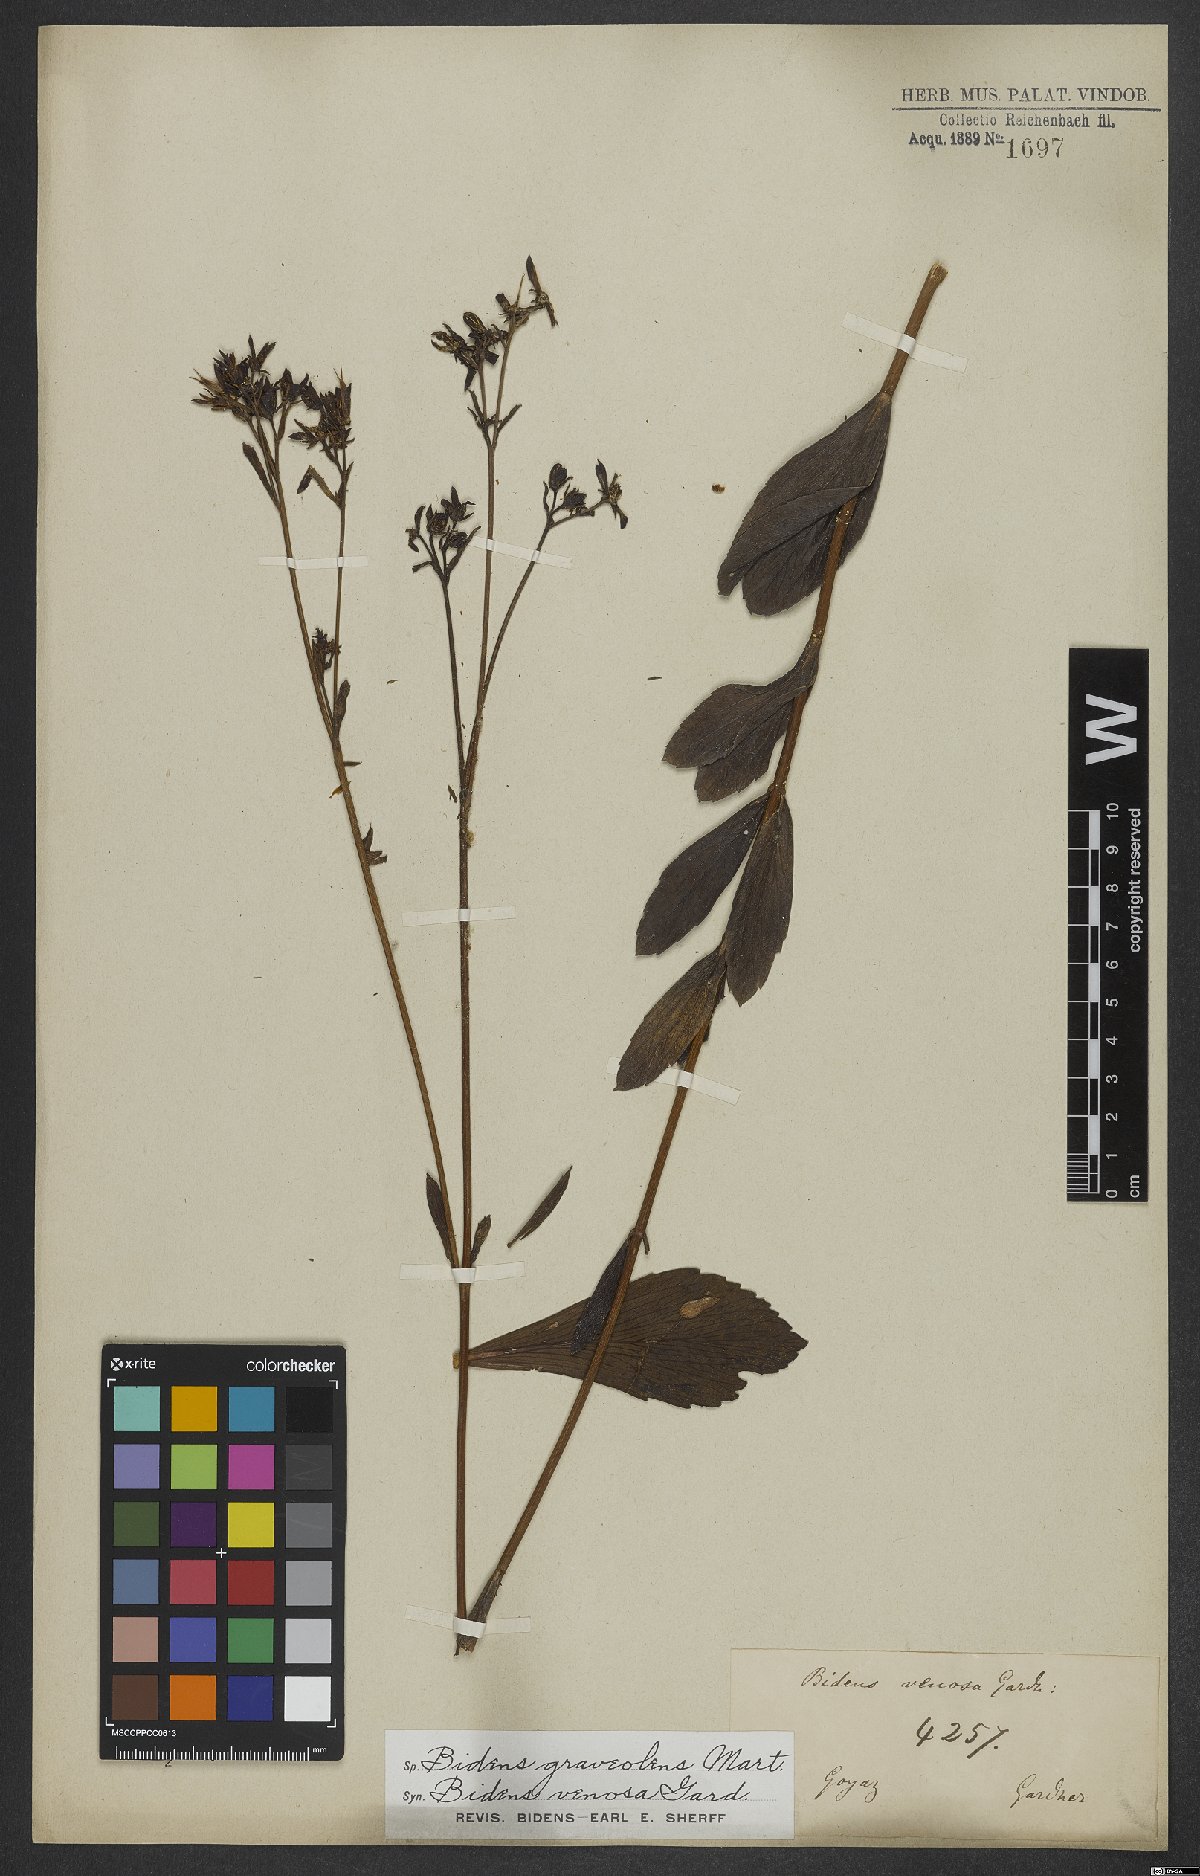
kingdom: Plantae
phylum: Tracheophyta
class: Magnoliopsida
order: Asterales
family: Asteraceae
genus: Bidens
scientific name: Bidens graveolens
